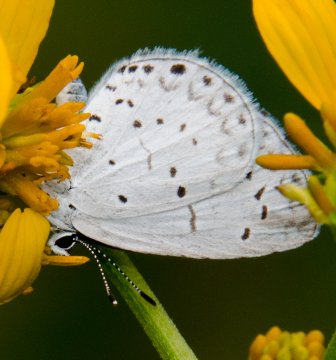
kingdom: Animalia
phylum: Arthropoda
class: Insecta
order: Lepidoptera
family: Lycaenidae
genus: Cyaniris
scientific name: Cyaniris neglecta
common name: Summer Azure
